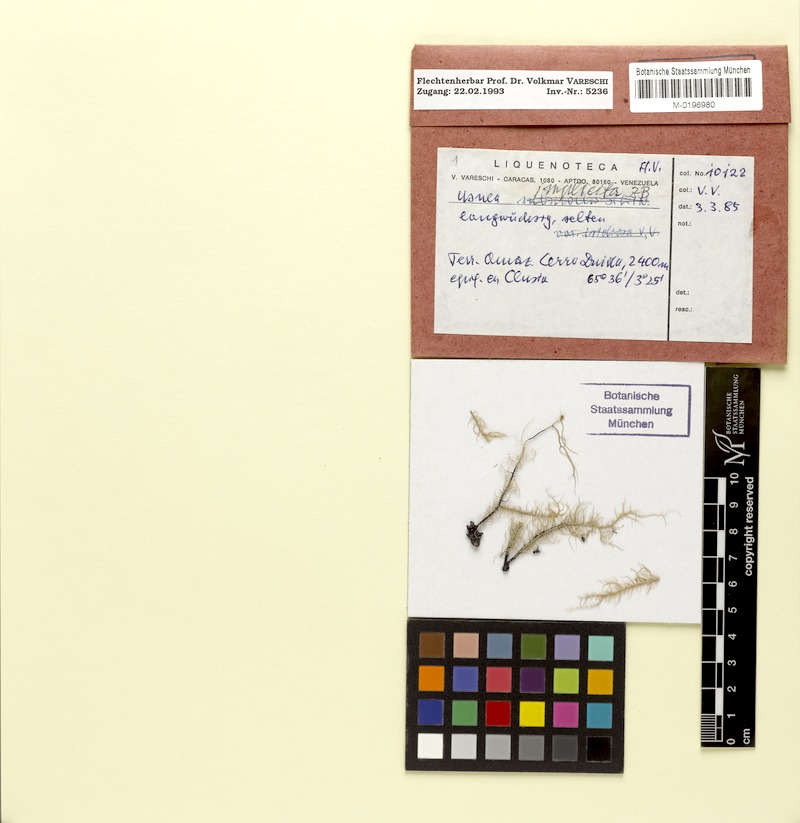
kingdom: Fungi
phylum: Ascomycota
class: Lecanoromycetes
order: Lecanorales
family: Parmeliaceae
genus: Eumitria
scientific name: Eumitria baileyi
